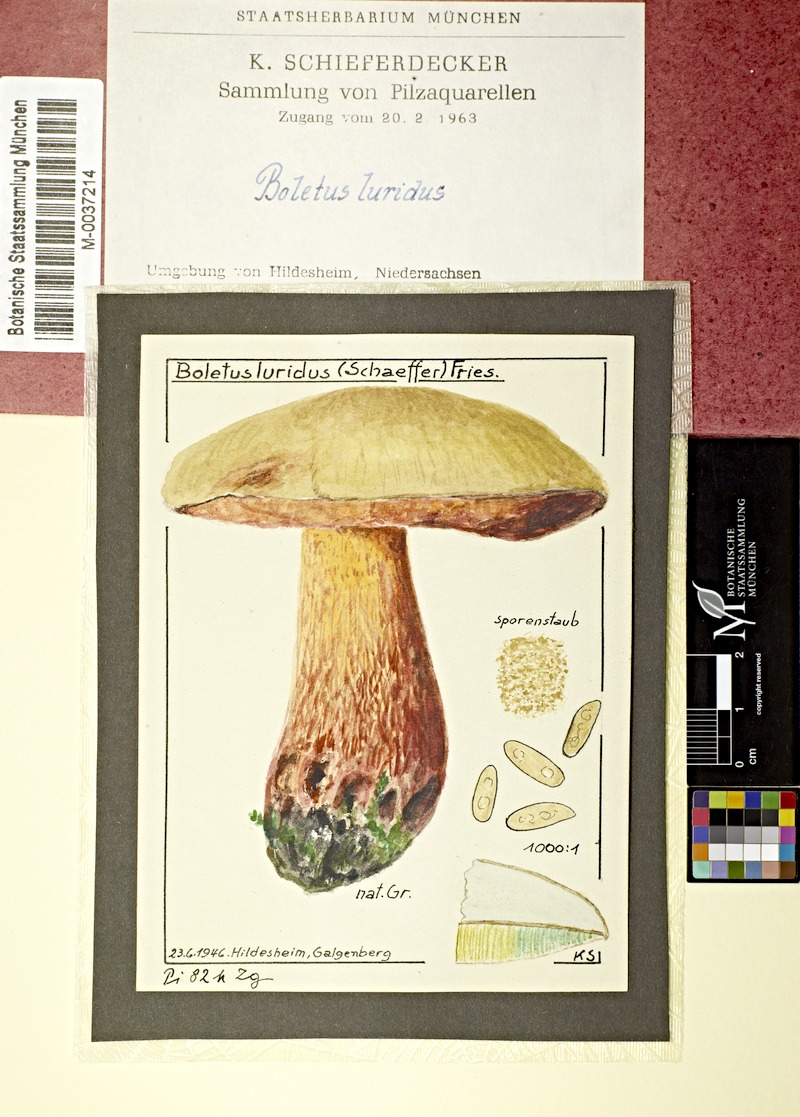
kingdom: Fungi
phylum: Basidiomycota
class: Agaricomycetes
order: Boletales
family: Boletaceae
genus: Suillellus
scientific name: Suillellus luridus
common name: Lurid bolete
